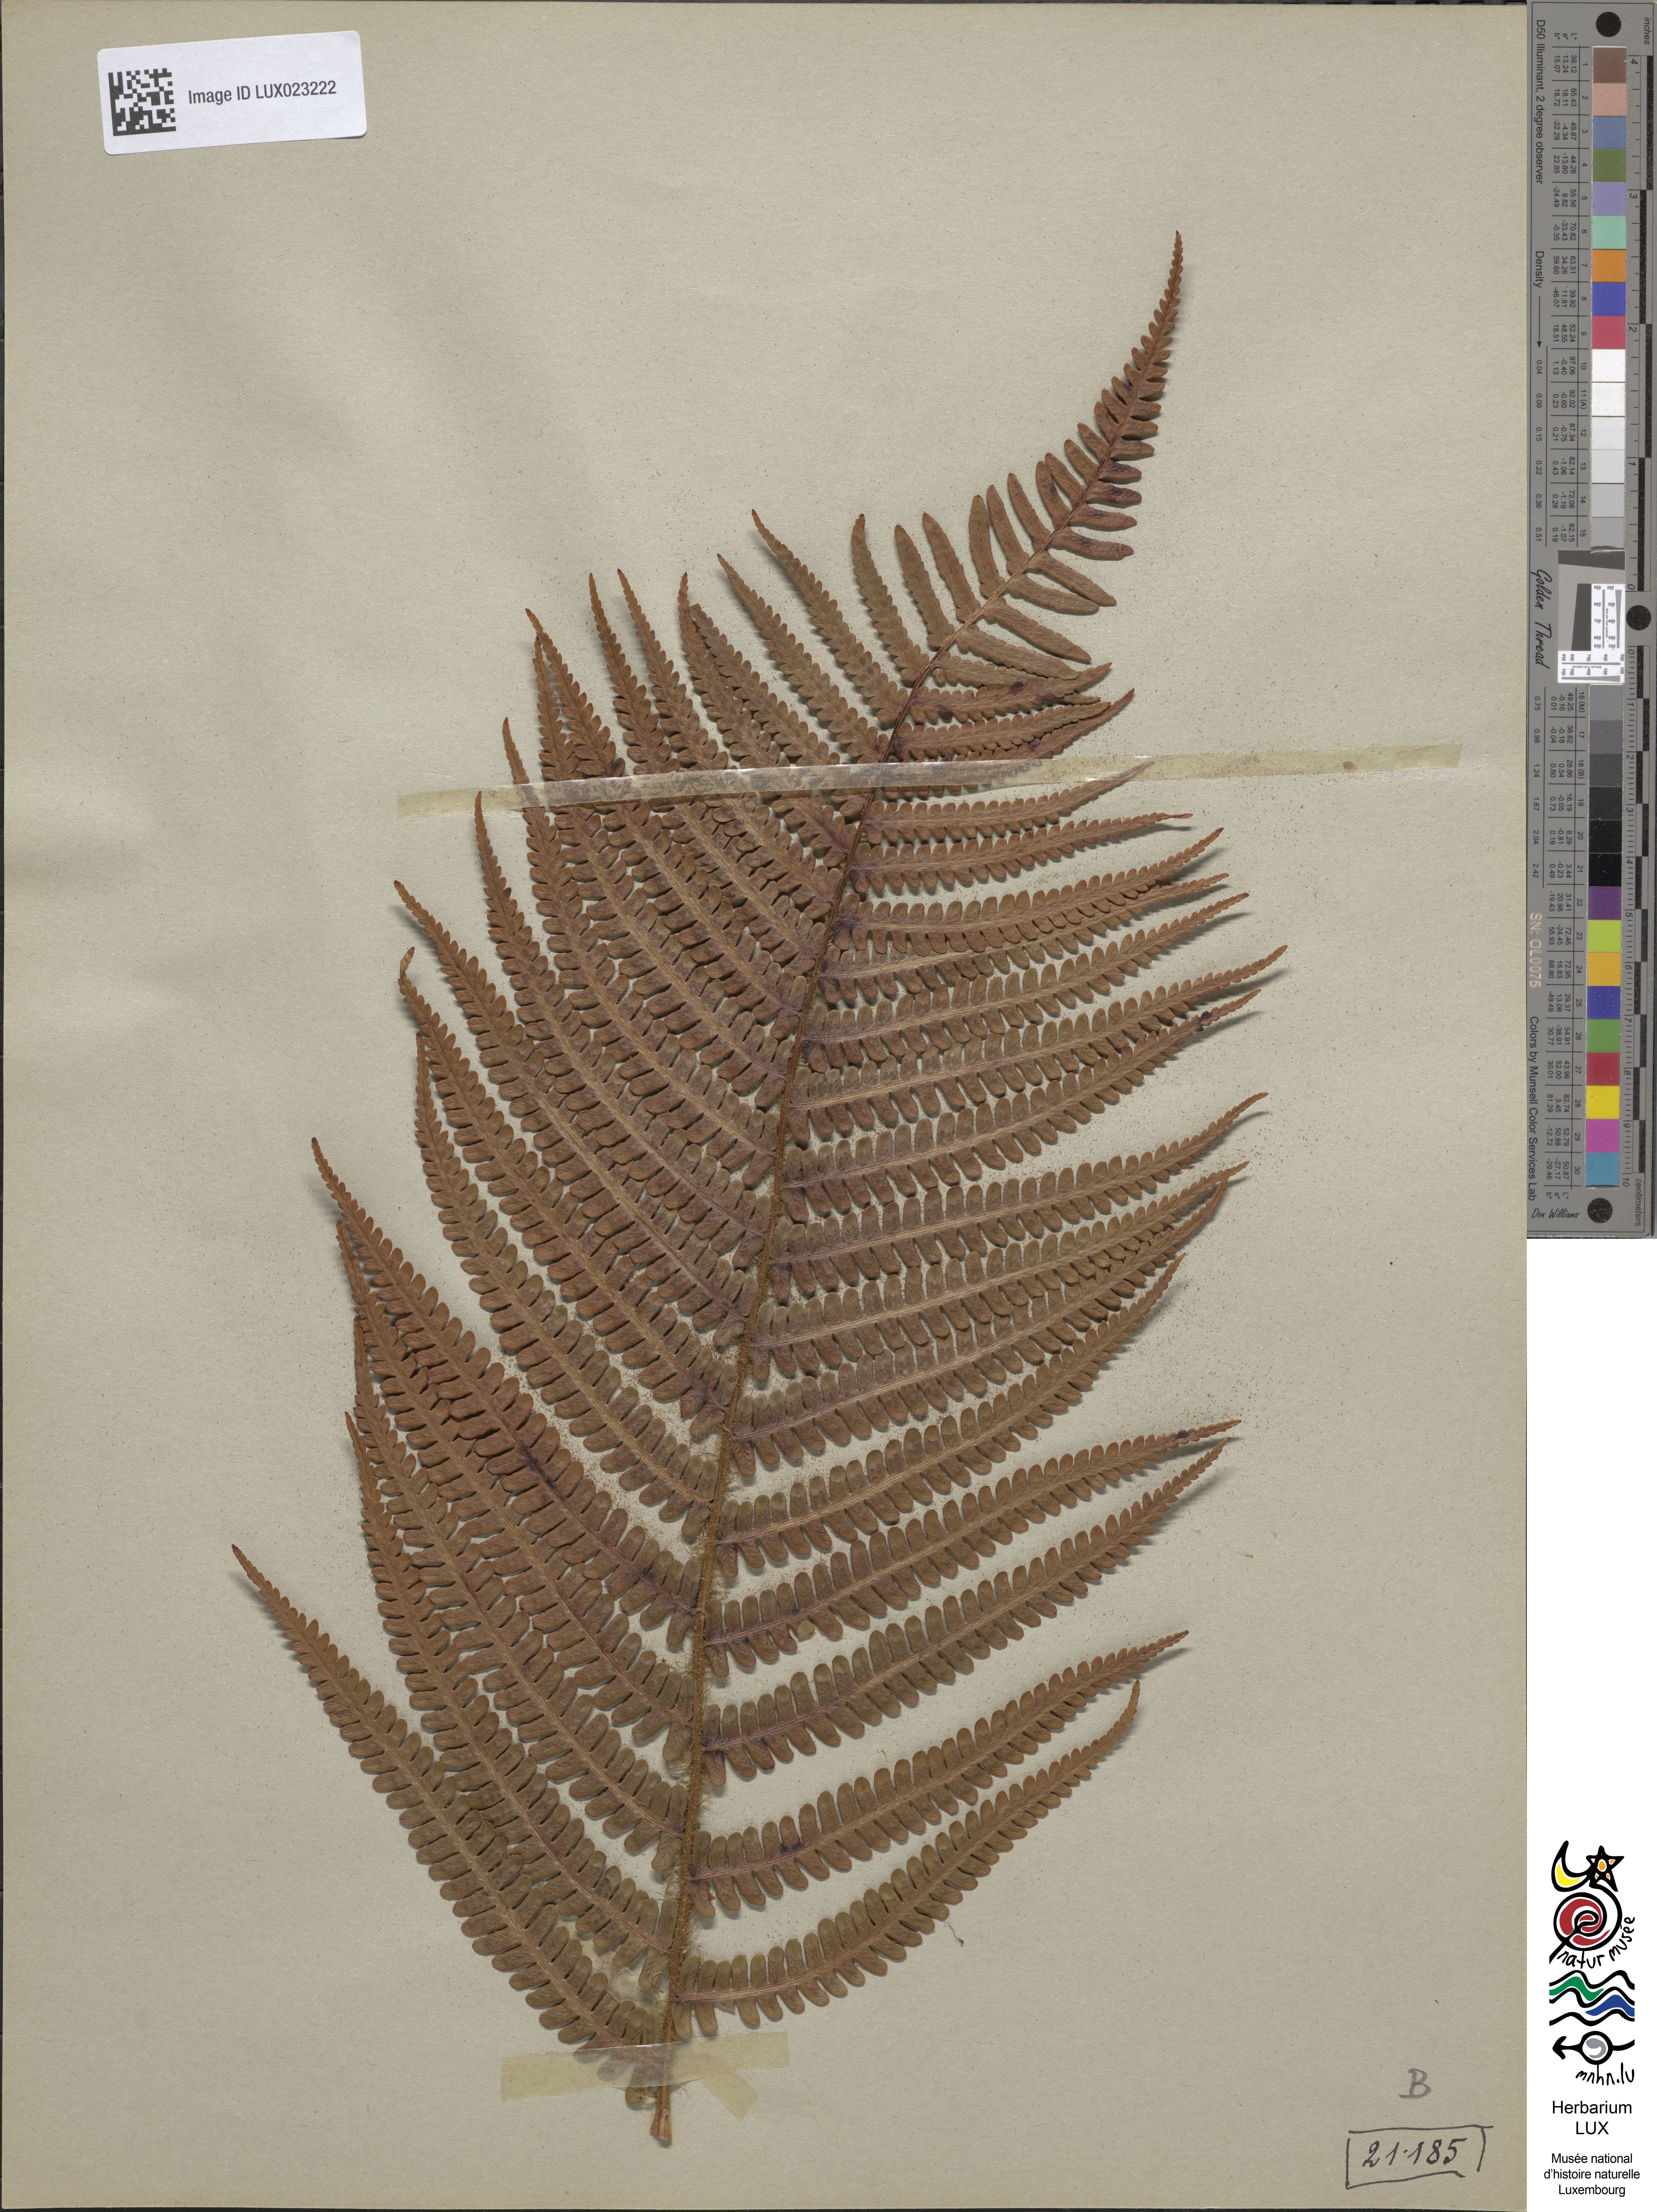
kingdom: Plantae
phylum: Tracheophyta
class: Polypodiopsida
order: Polypodiales
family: Dryopteridaceae
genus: Dryopteris
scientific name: Dryopteris borreri
